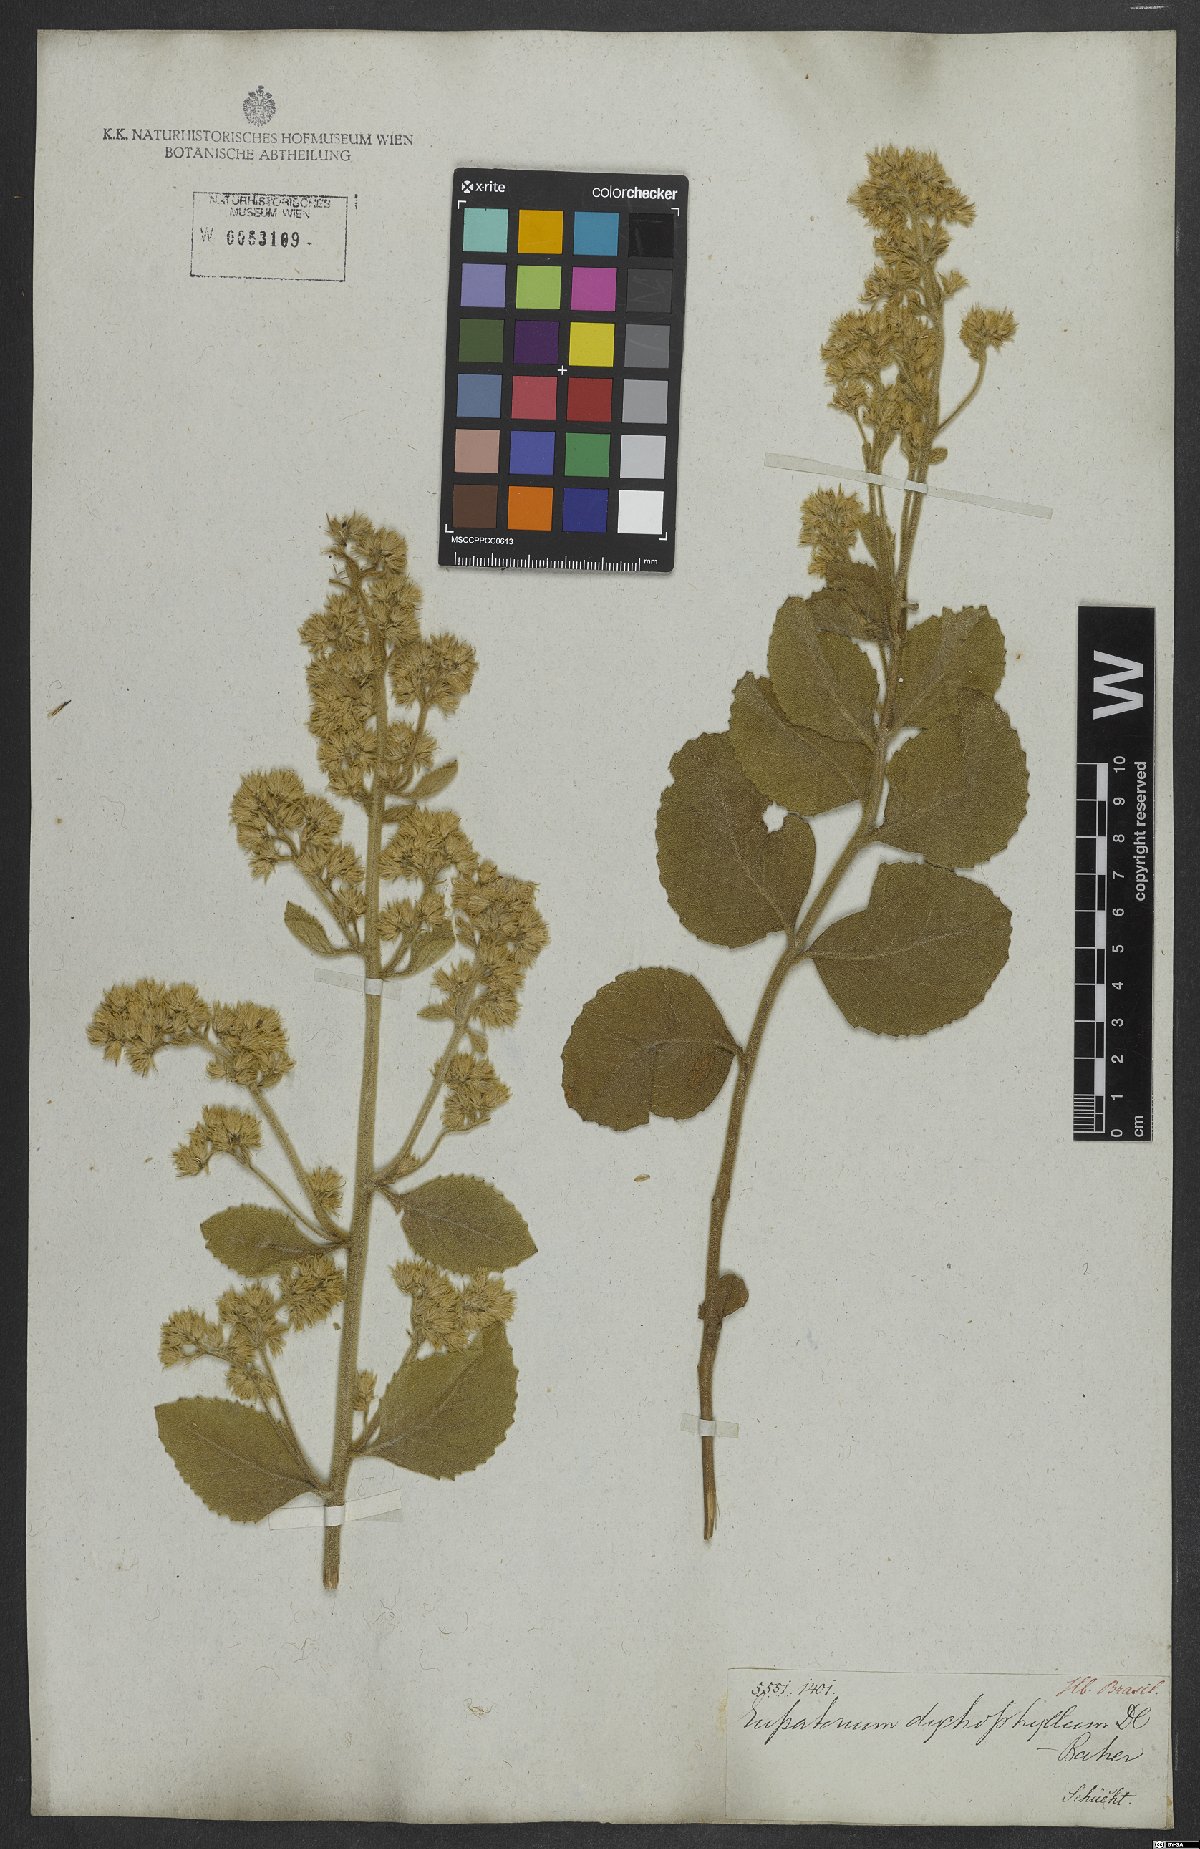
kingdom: Plantae
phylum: Tracheophyta
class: Magnoliopsida
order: Asterales
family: Asteraceae
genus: Stomatanthes
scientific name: Stomatanthes dictyophyllus
